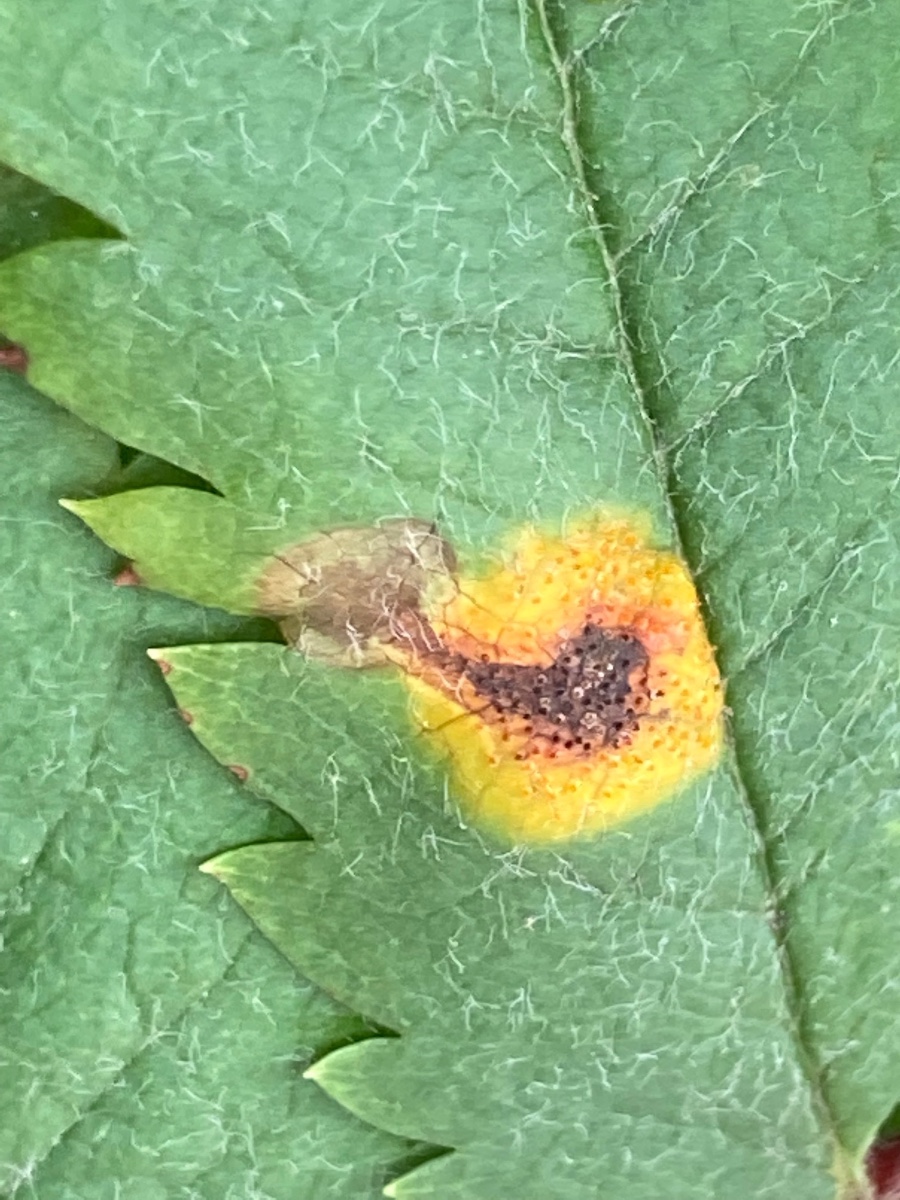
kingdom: Fungi
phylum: Basidiomycota
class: Pucciniomycetes
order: Pucciniales
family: Gymnosporangiaceae
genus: Gymnosporangium
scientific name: Gymnosporangium cornutum
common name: rønnehorn-bævrerust
